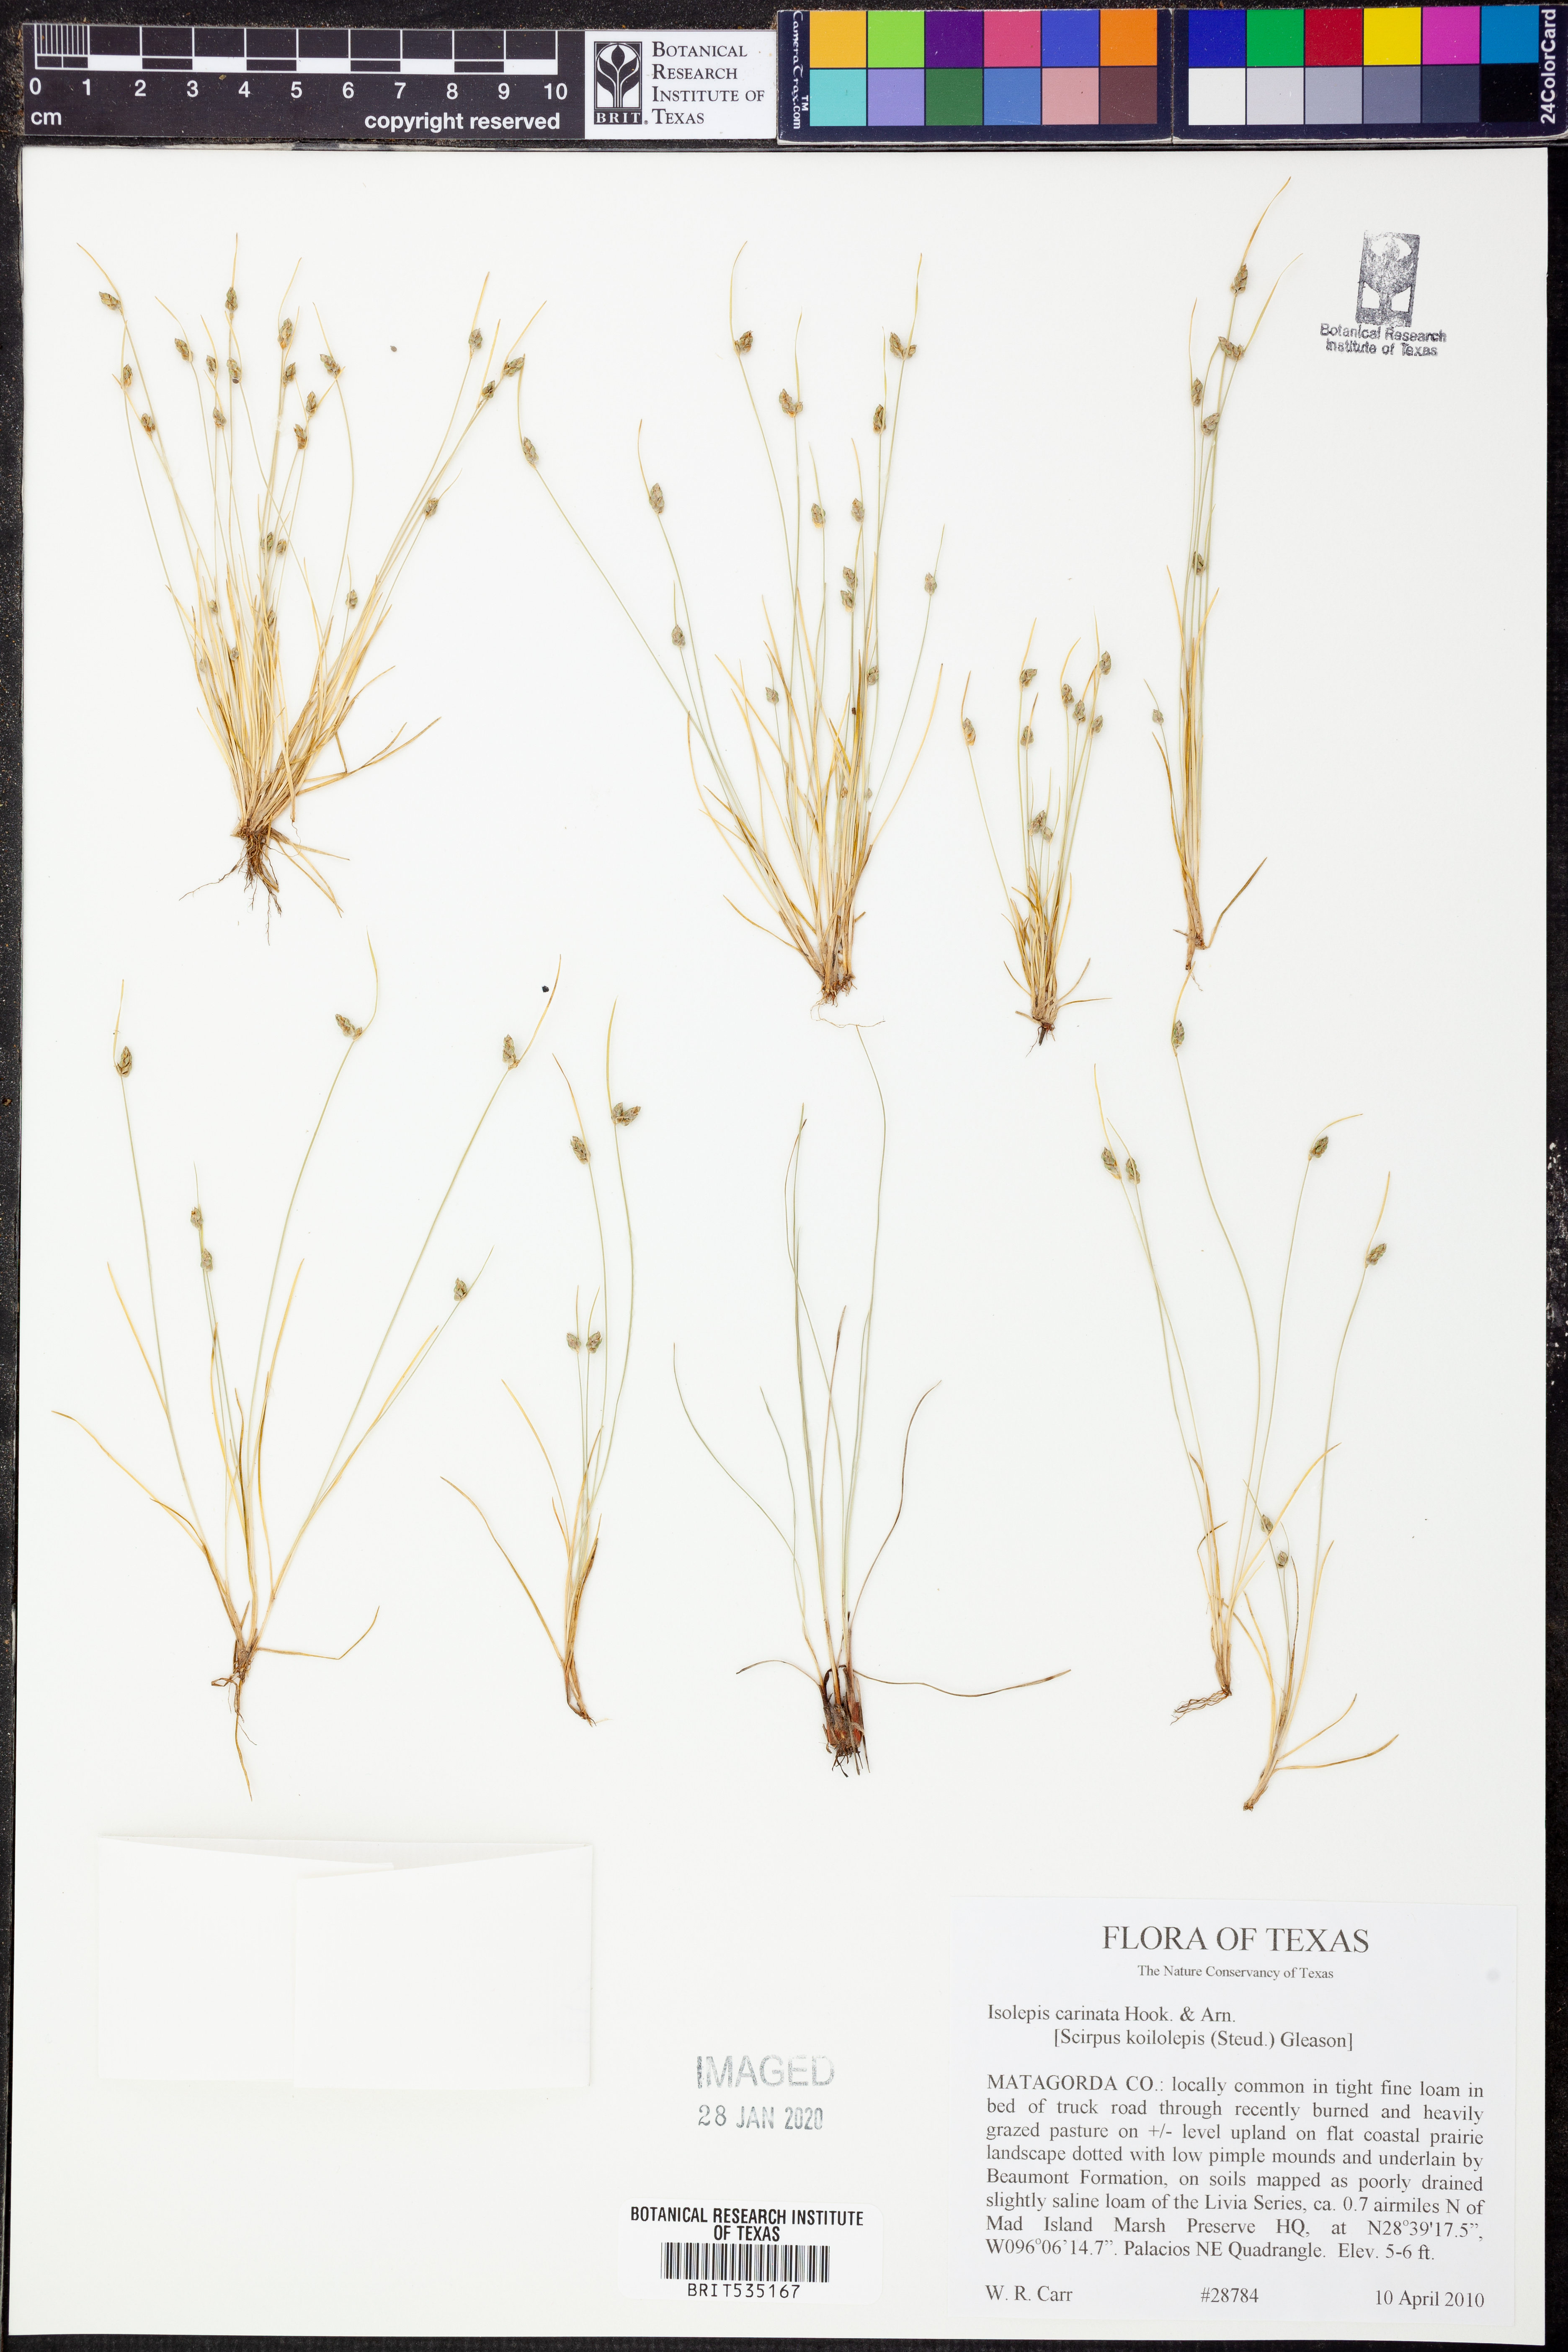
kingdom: Plantae
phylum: Tracheophyta
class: Liliopsida
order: Poales
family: Cyperaceae
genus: Isolepis
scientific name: Isolepis carinata
